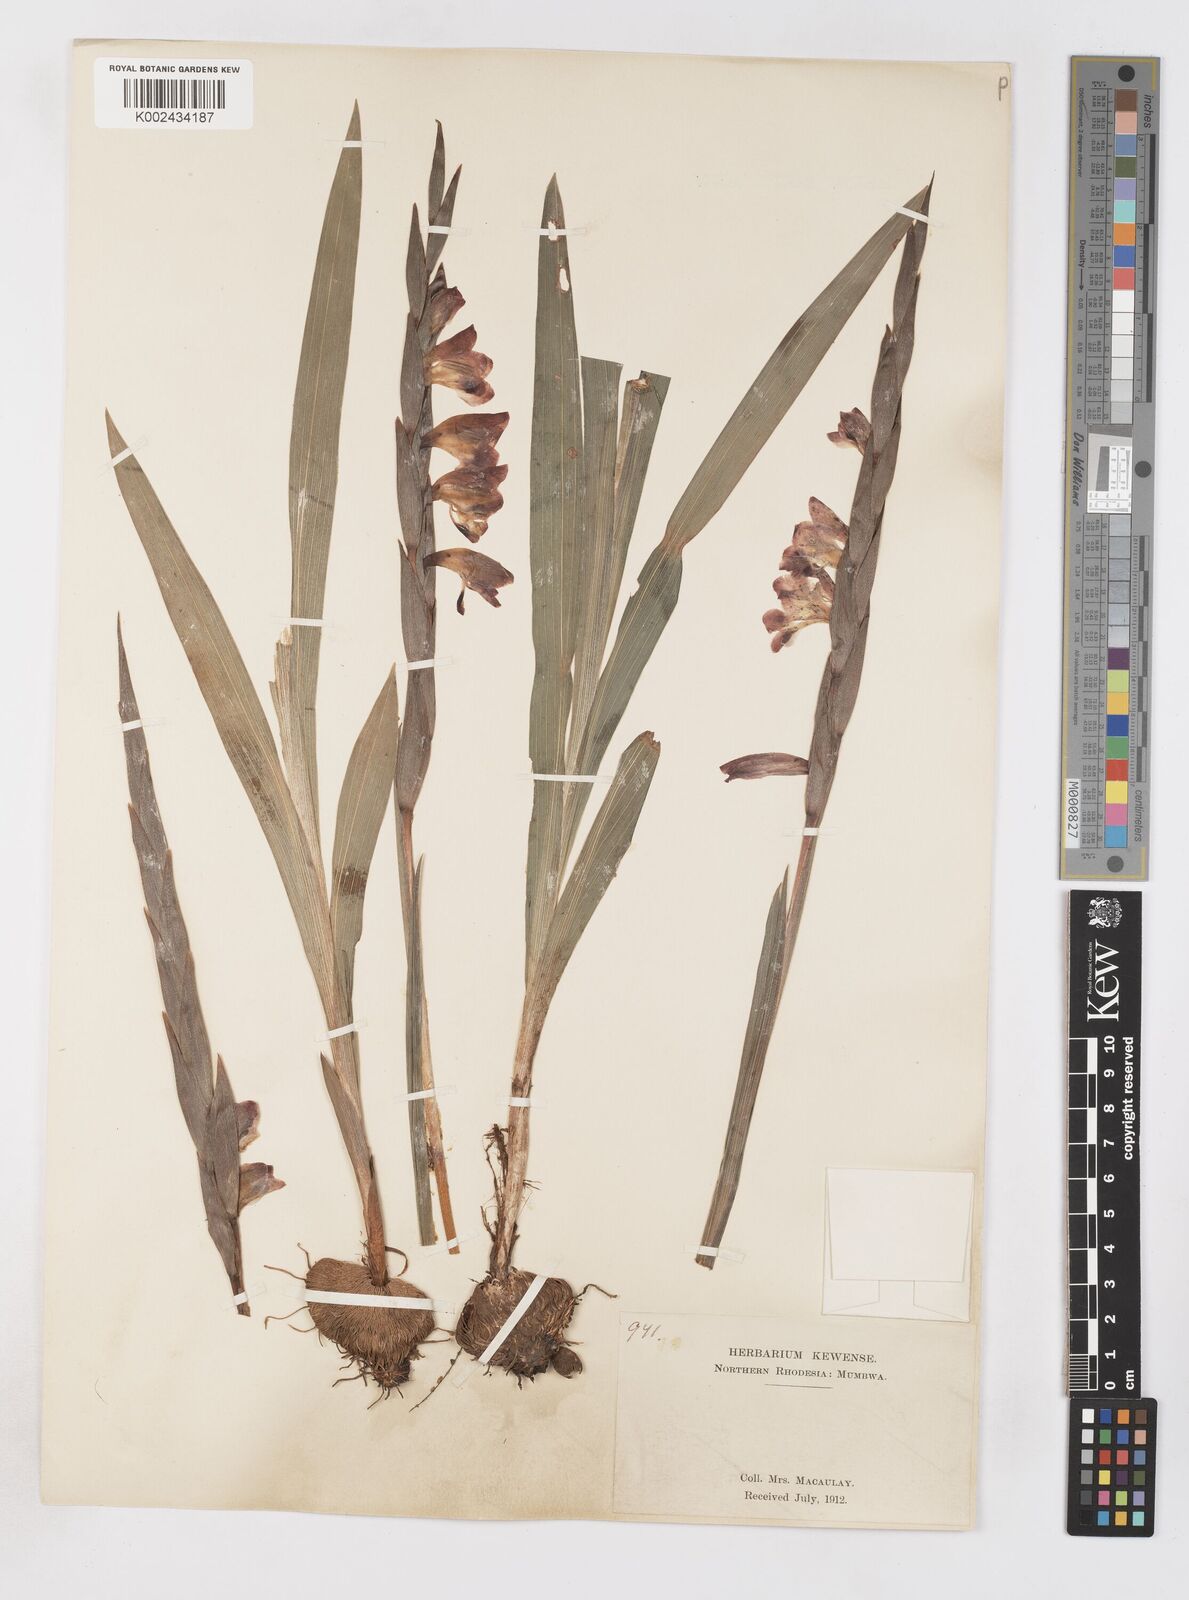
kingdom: Plantae
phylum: Tracheophyta
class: Liliopsida
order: Asparagales
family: Iridaceae
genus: Gladiolus
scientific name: Gladiolus gregarius
